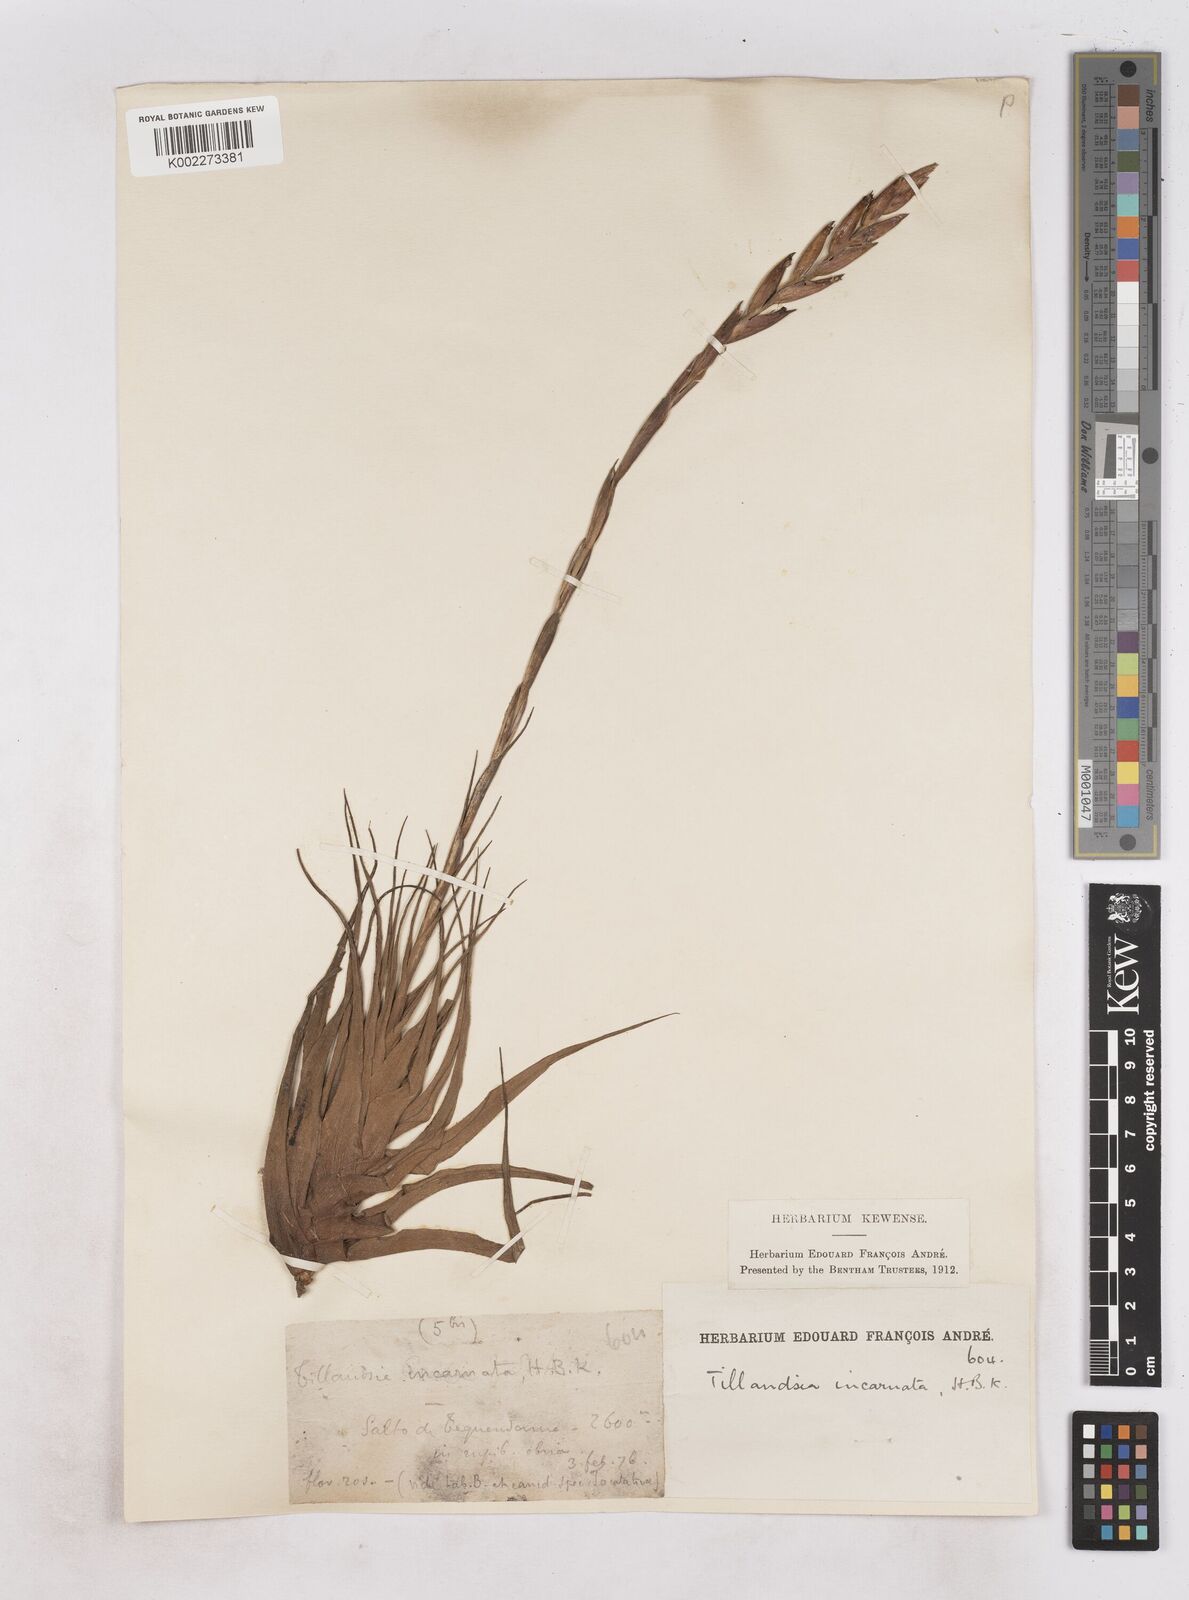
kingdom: Plantae
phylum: Tracheophyta
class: Liliopsida
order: Poales
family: Bromeliaceae
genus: Tillandsia
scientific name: Tillandsia incarnata
